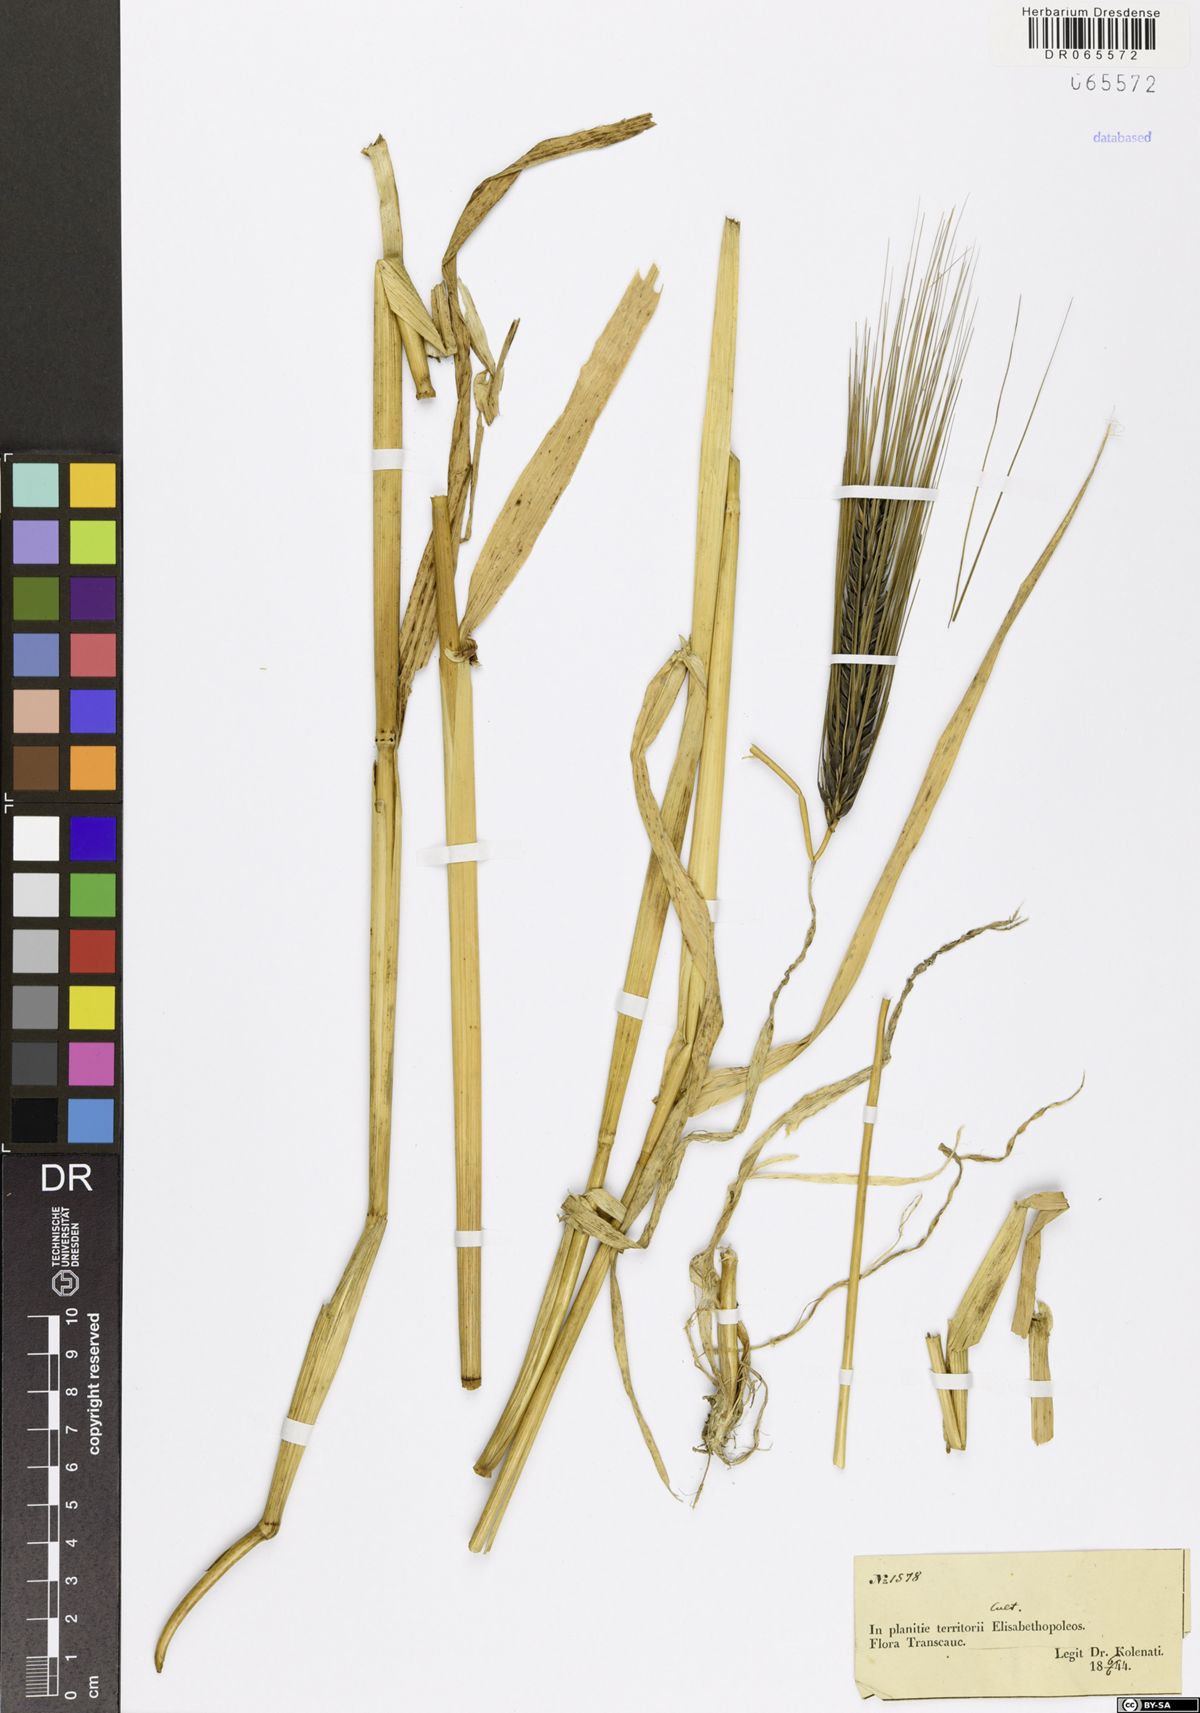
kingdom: Plantae
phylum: Tracheophyta
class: Liliopsida
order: Poales
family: Poaceae
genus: Hordeum
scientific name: Hordeum
